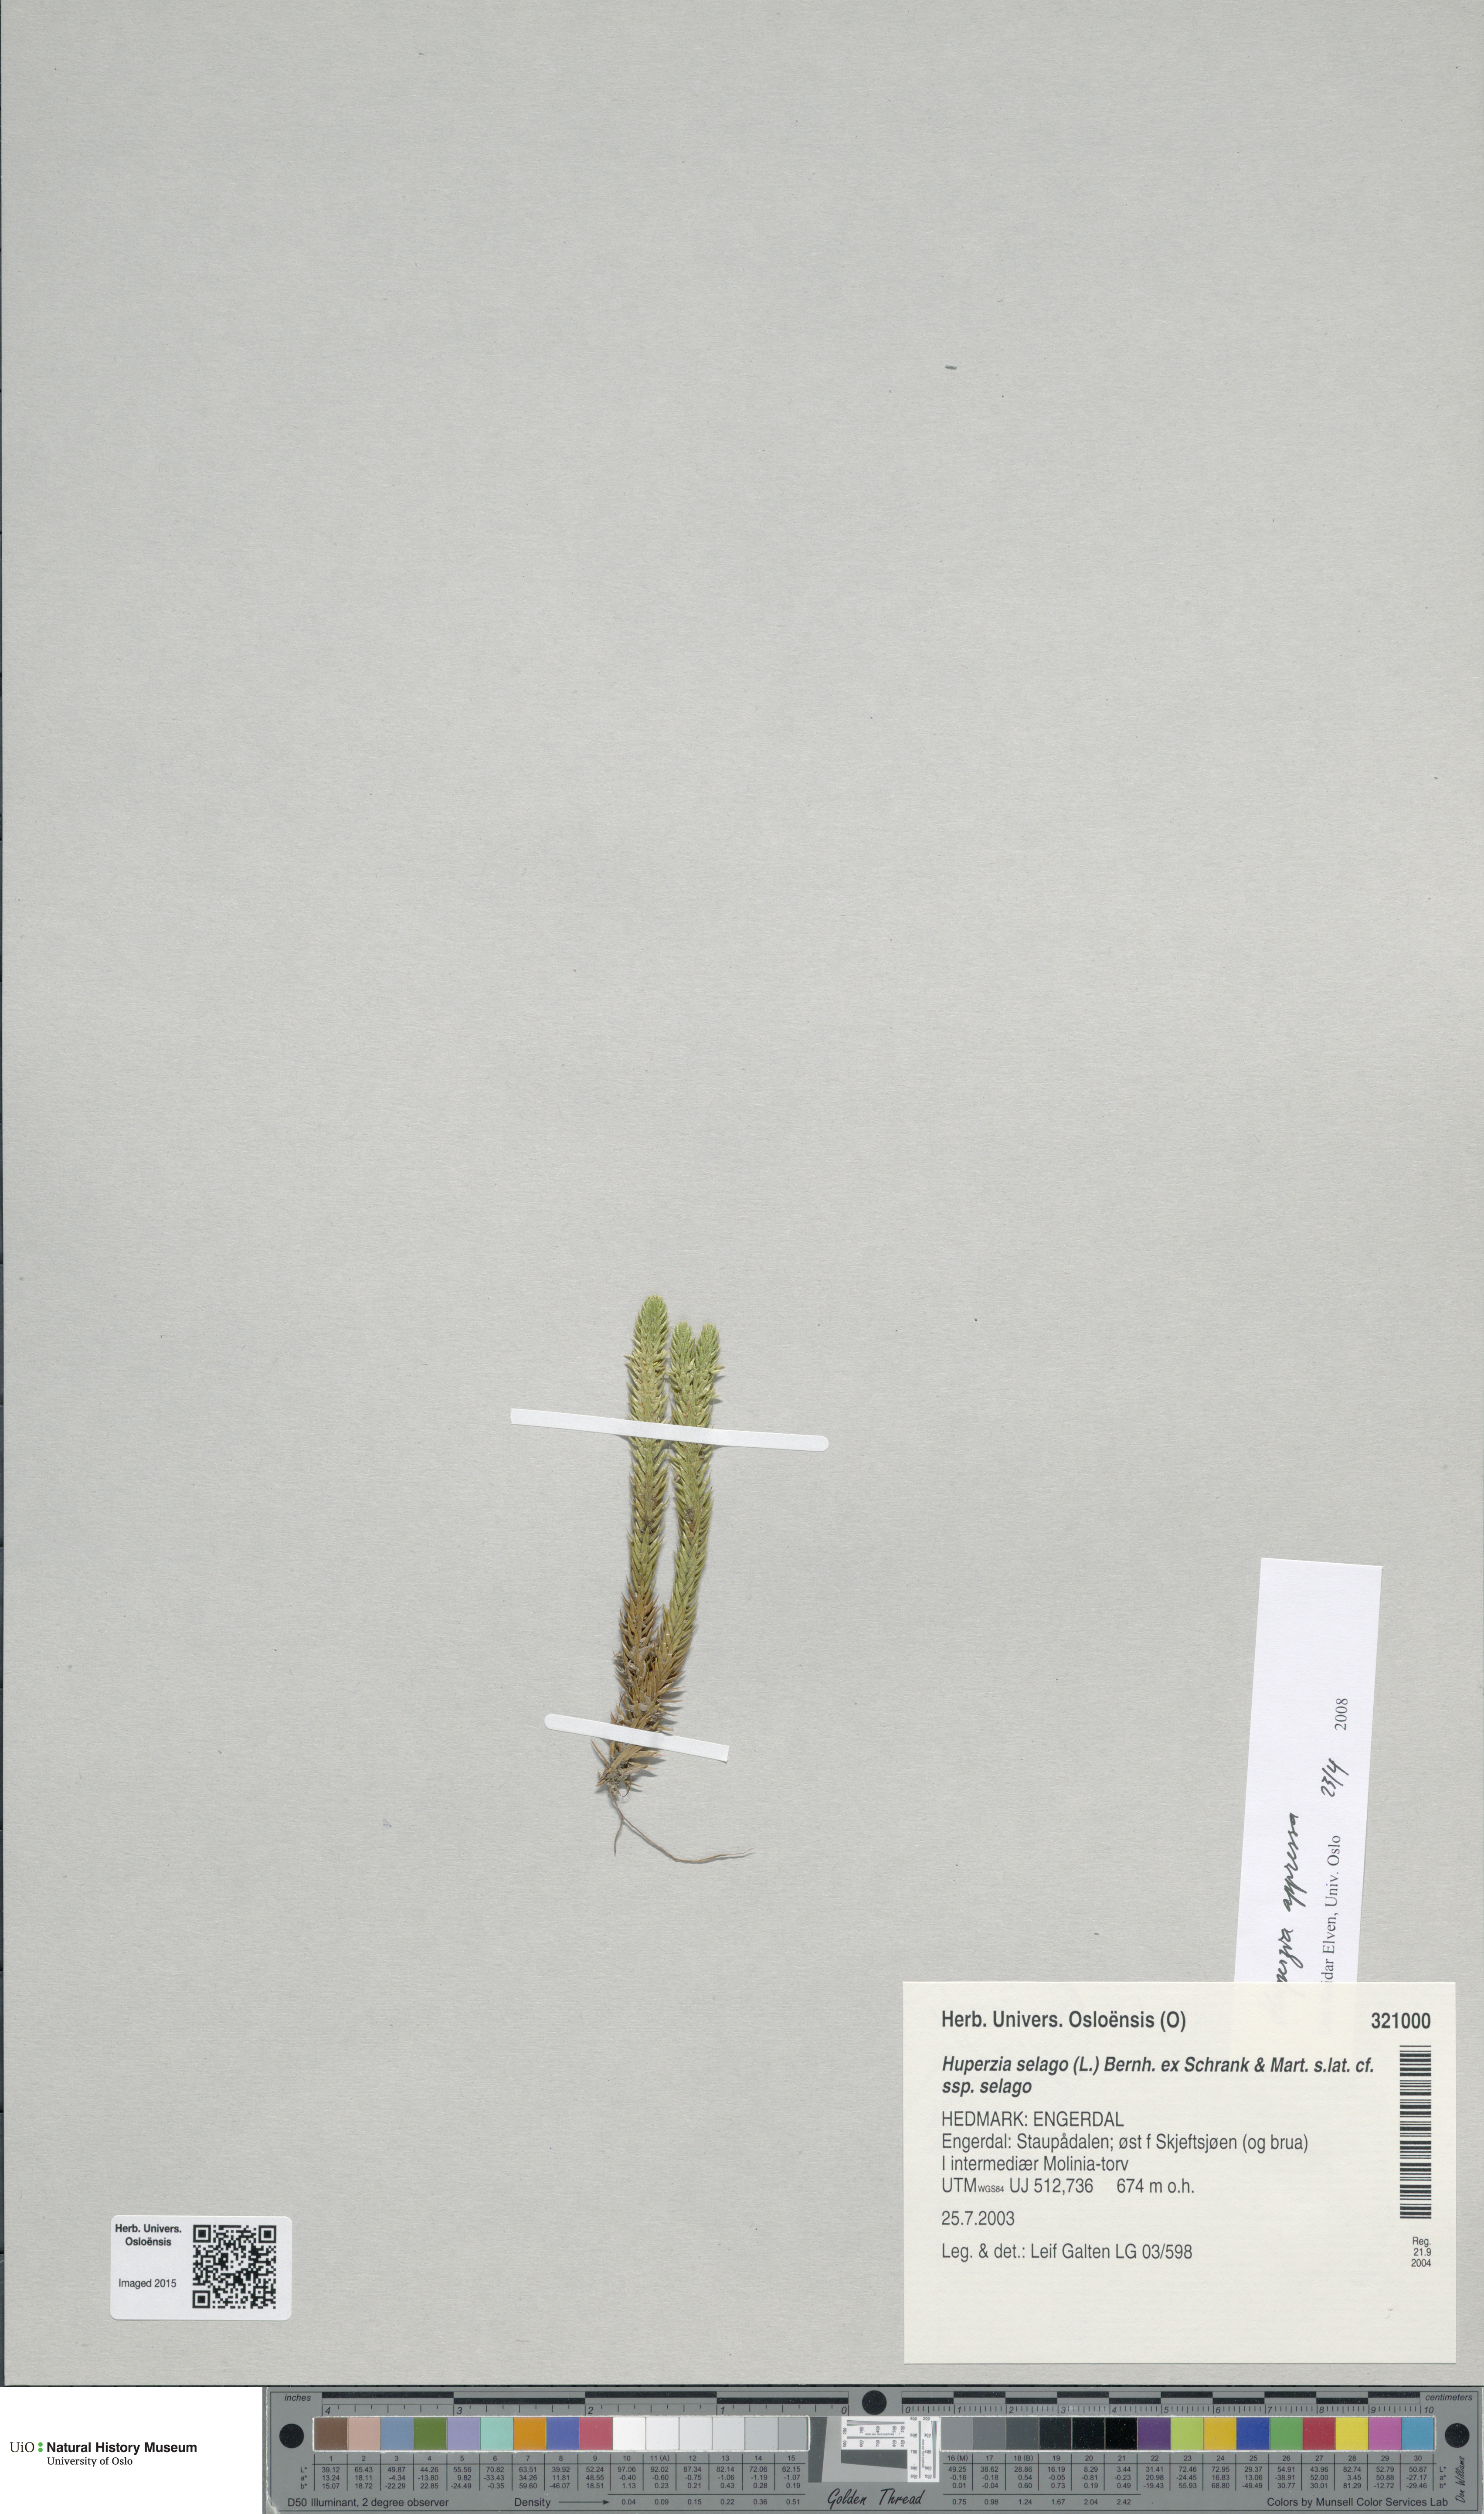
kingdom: Plantae
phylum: Tracheophyta
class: Lycopodiopsida
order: Lycopodiales
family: Lycopodiaceae
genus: Huperzia
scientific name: Huperzia selago
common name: Northern firmoss
